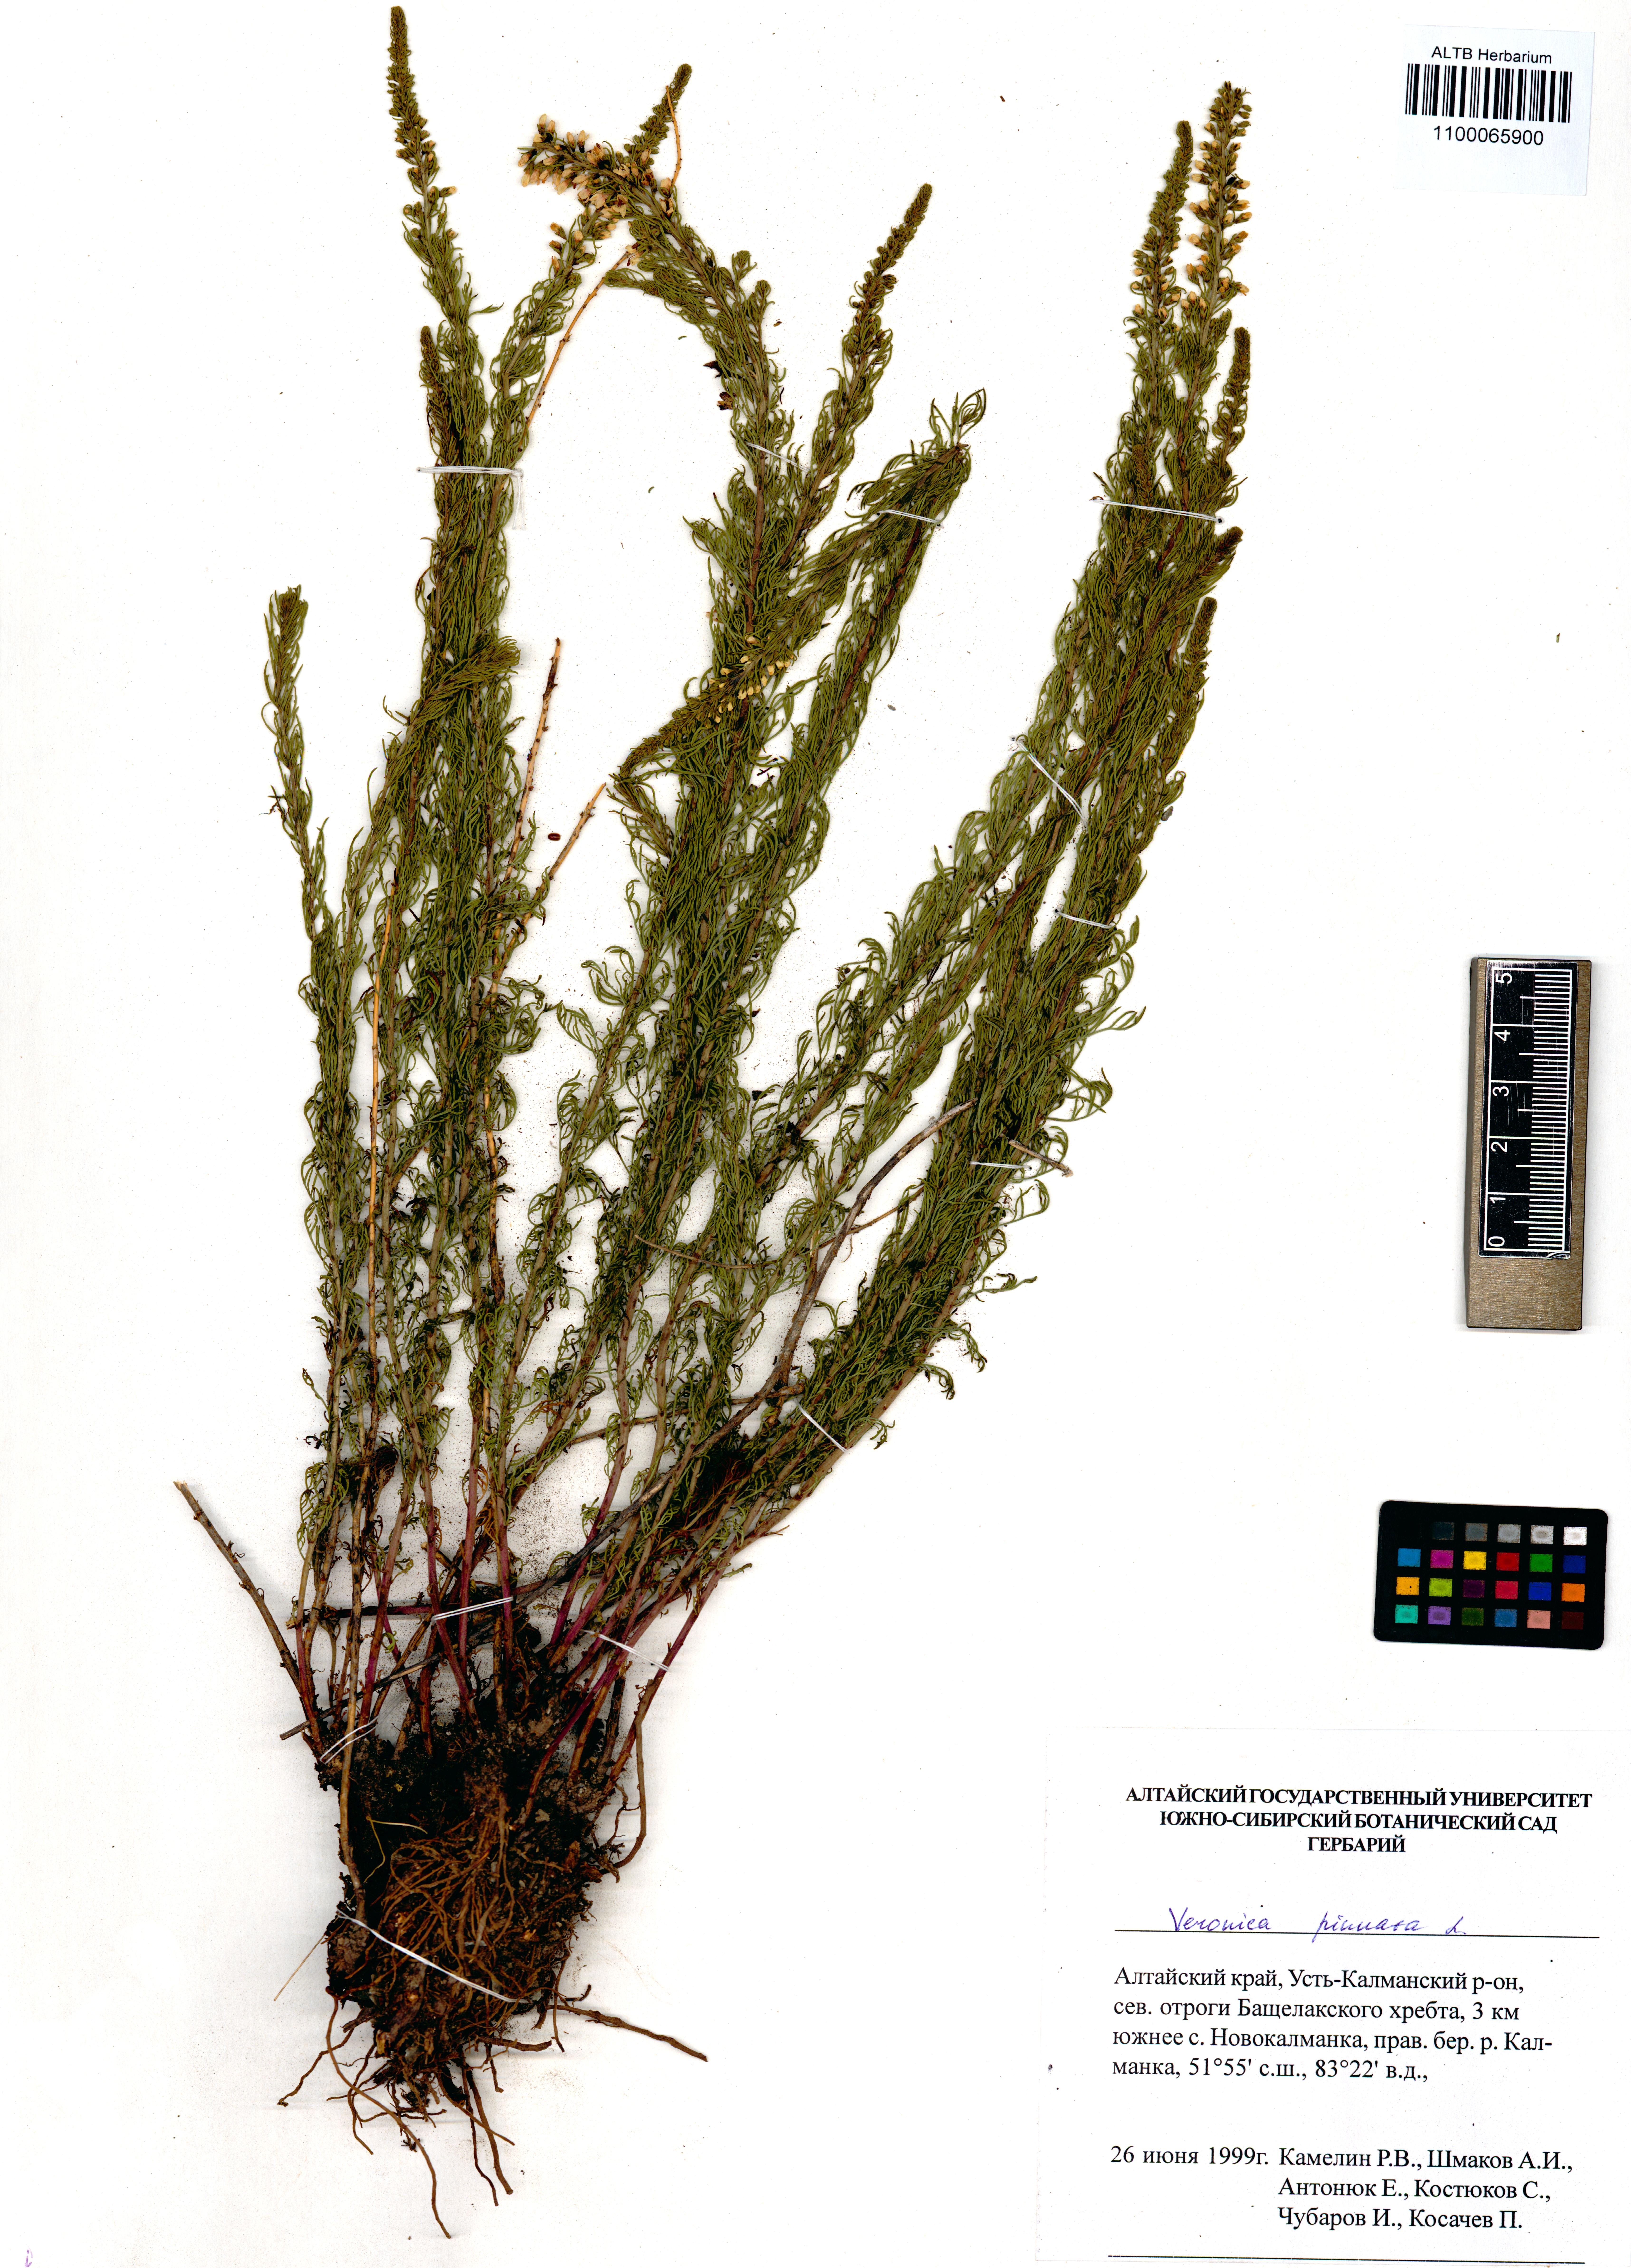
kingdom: Plantae
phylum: Tracheophyta
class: Magnoliopsida
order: Lamiales
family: Plantaginaceae
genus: Veronica
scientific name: Veronica pinnata
